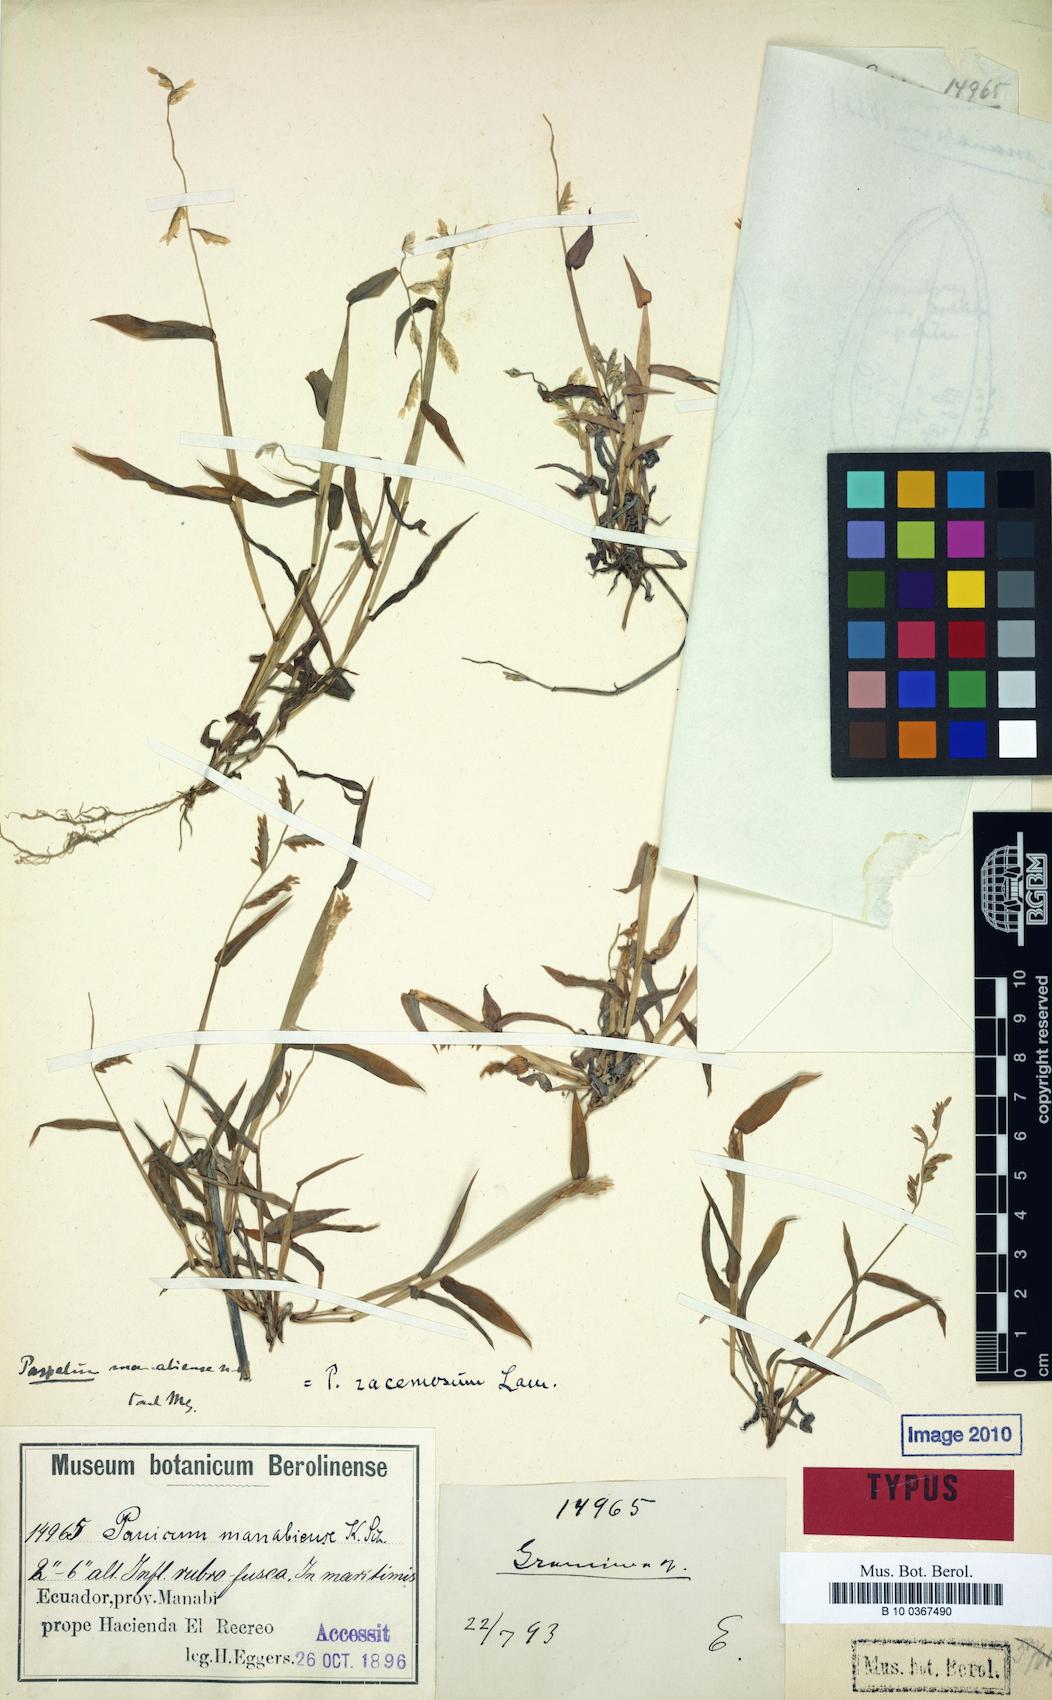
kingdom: Plantae
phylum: Tracheophyta
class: Liliopsida
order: Poales
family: Poaceae
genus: Paspalum
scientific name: Paspalum racemosum
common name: Peruvian paspalum
